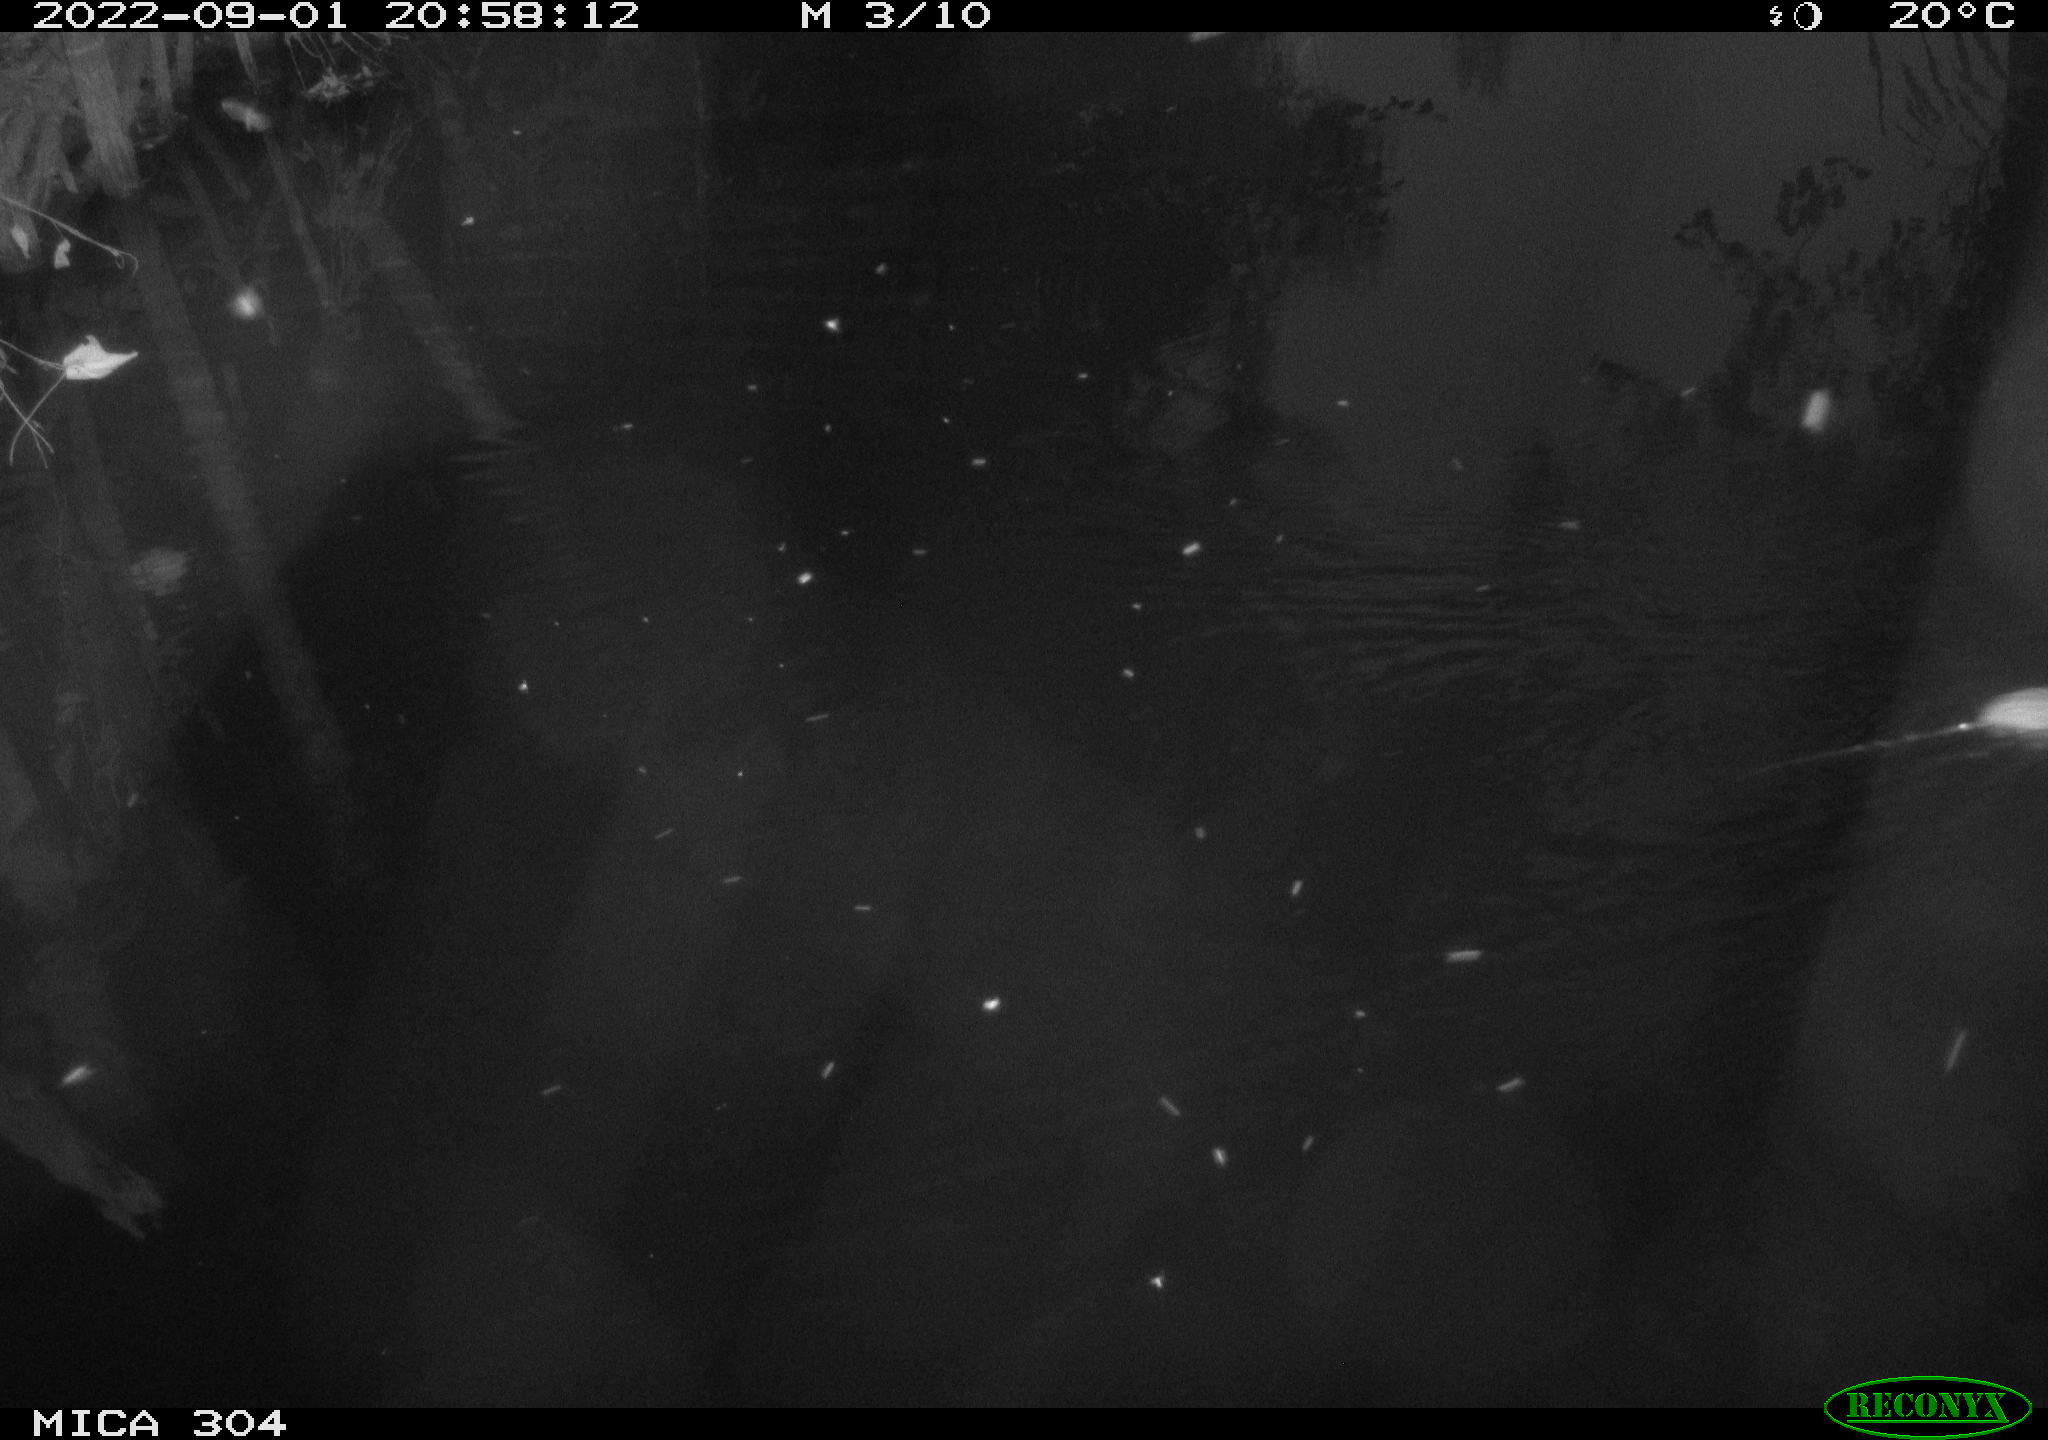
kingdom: Animalia
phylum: Chordata
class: Mammalia
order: Rodentia
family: Muridae
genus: Rattus
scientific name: Rattus norvegicus
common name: Brown rat
